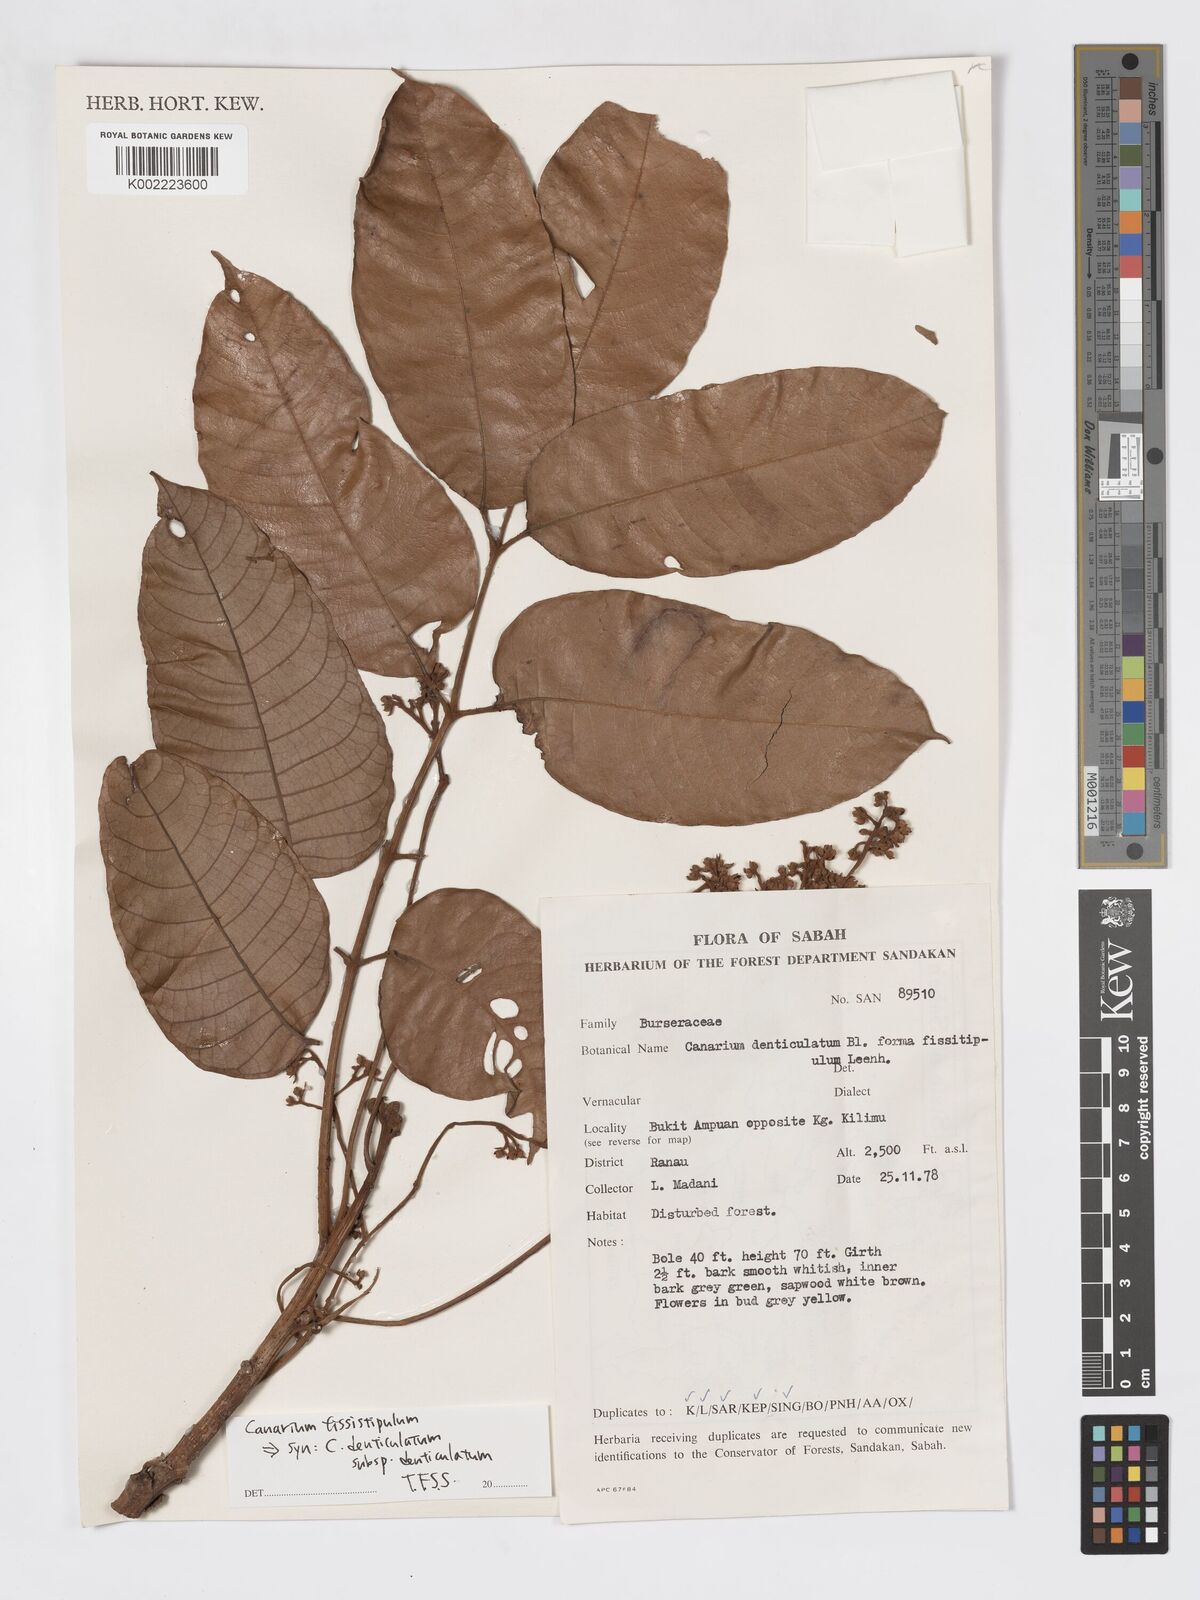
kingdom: Plantae
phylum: Tracheophyta
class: Magnoliopsida
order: Sapindales
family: Burseraceae
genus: Canarium
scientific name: Canarium denticulatum
